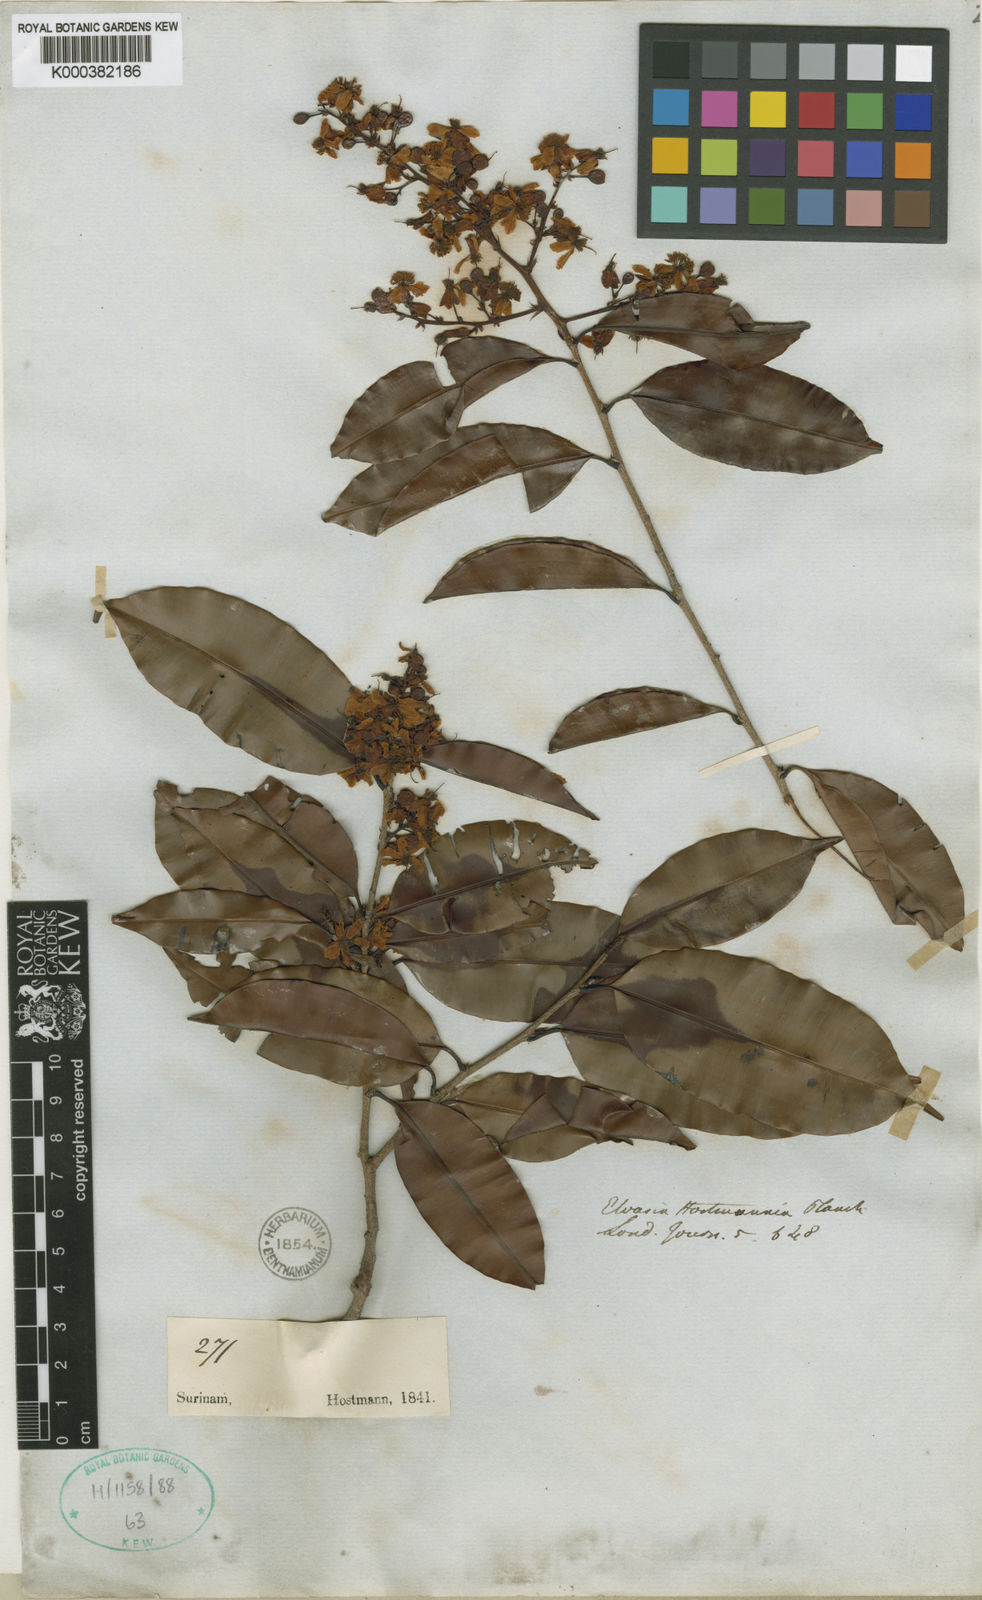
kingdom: Plantae
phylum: Tracheophyta
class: Magnoliopsida
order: Malpighiales
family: Ochnaceae
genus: Elvasia
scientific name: Elvasia elvasioides
